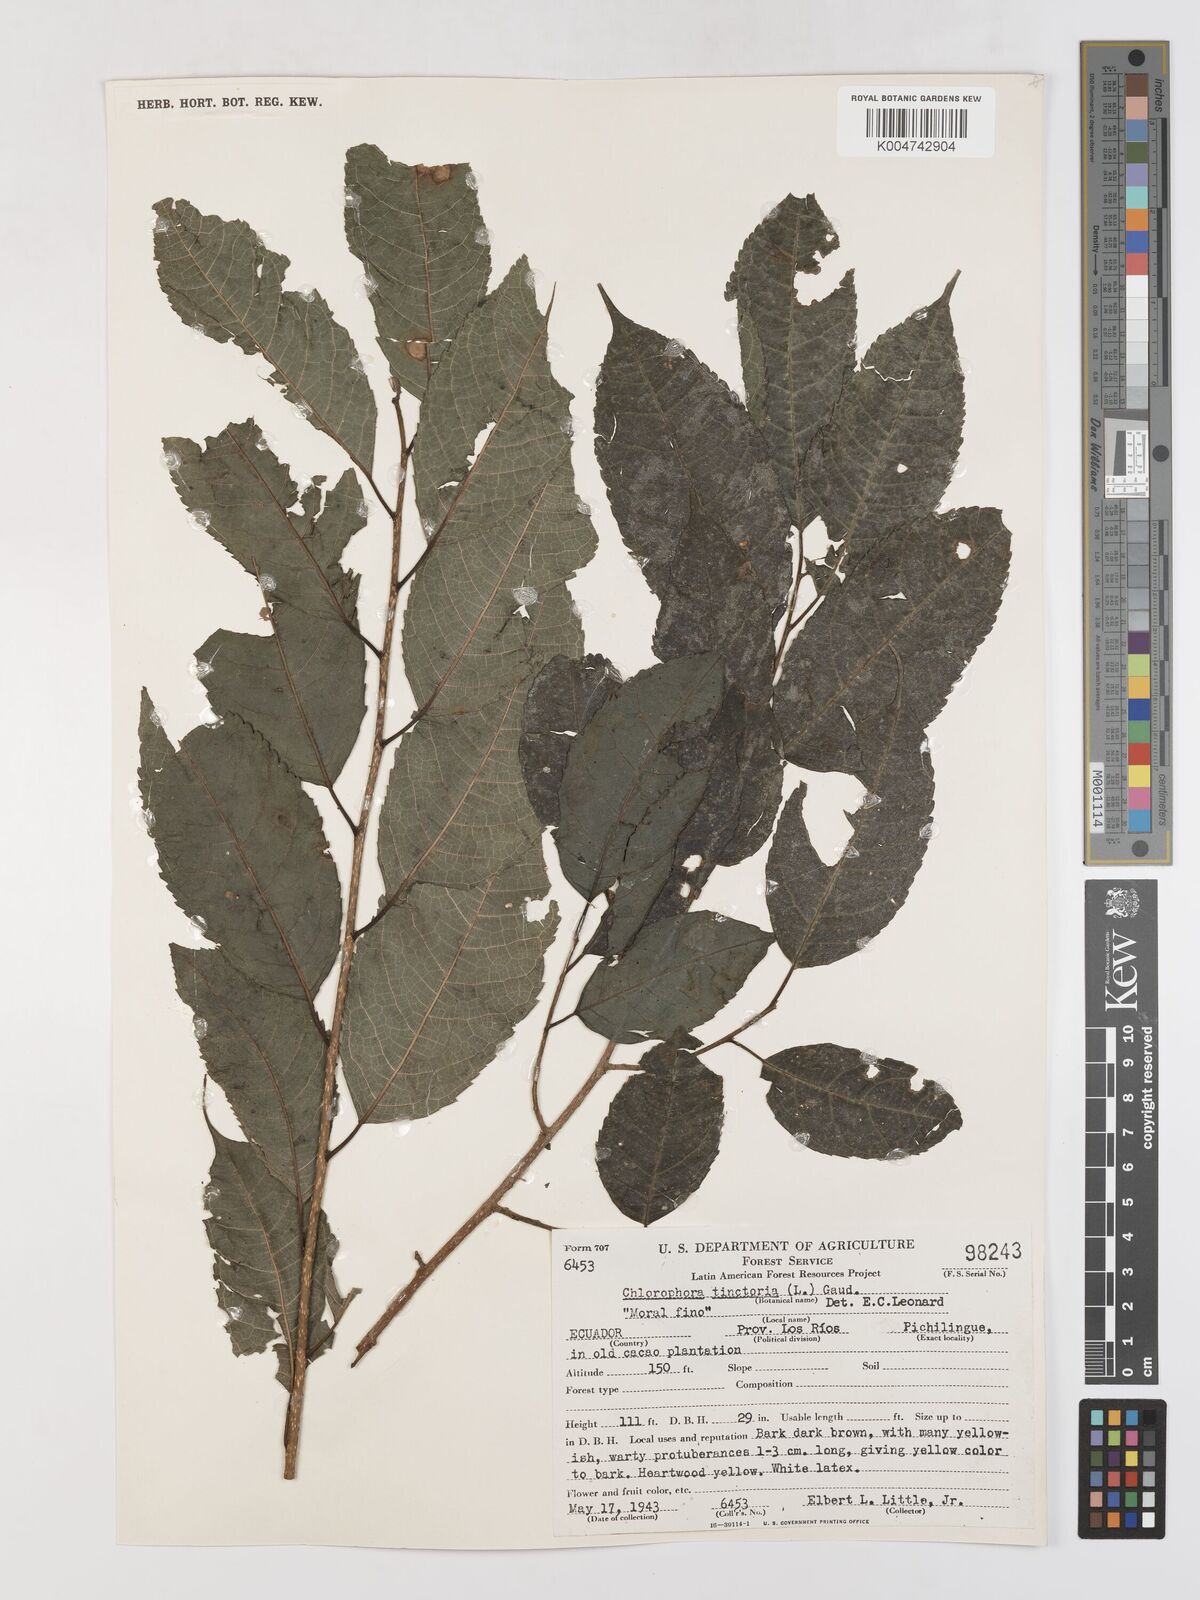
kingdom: Plantae
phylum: Tracheophyta
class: Magnoliopsida
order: Rosales
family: Moraceae
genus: Maclura
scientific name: Maclura tinctoria
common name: Old fustic
